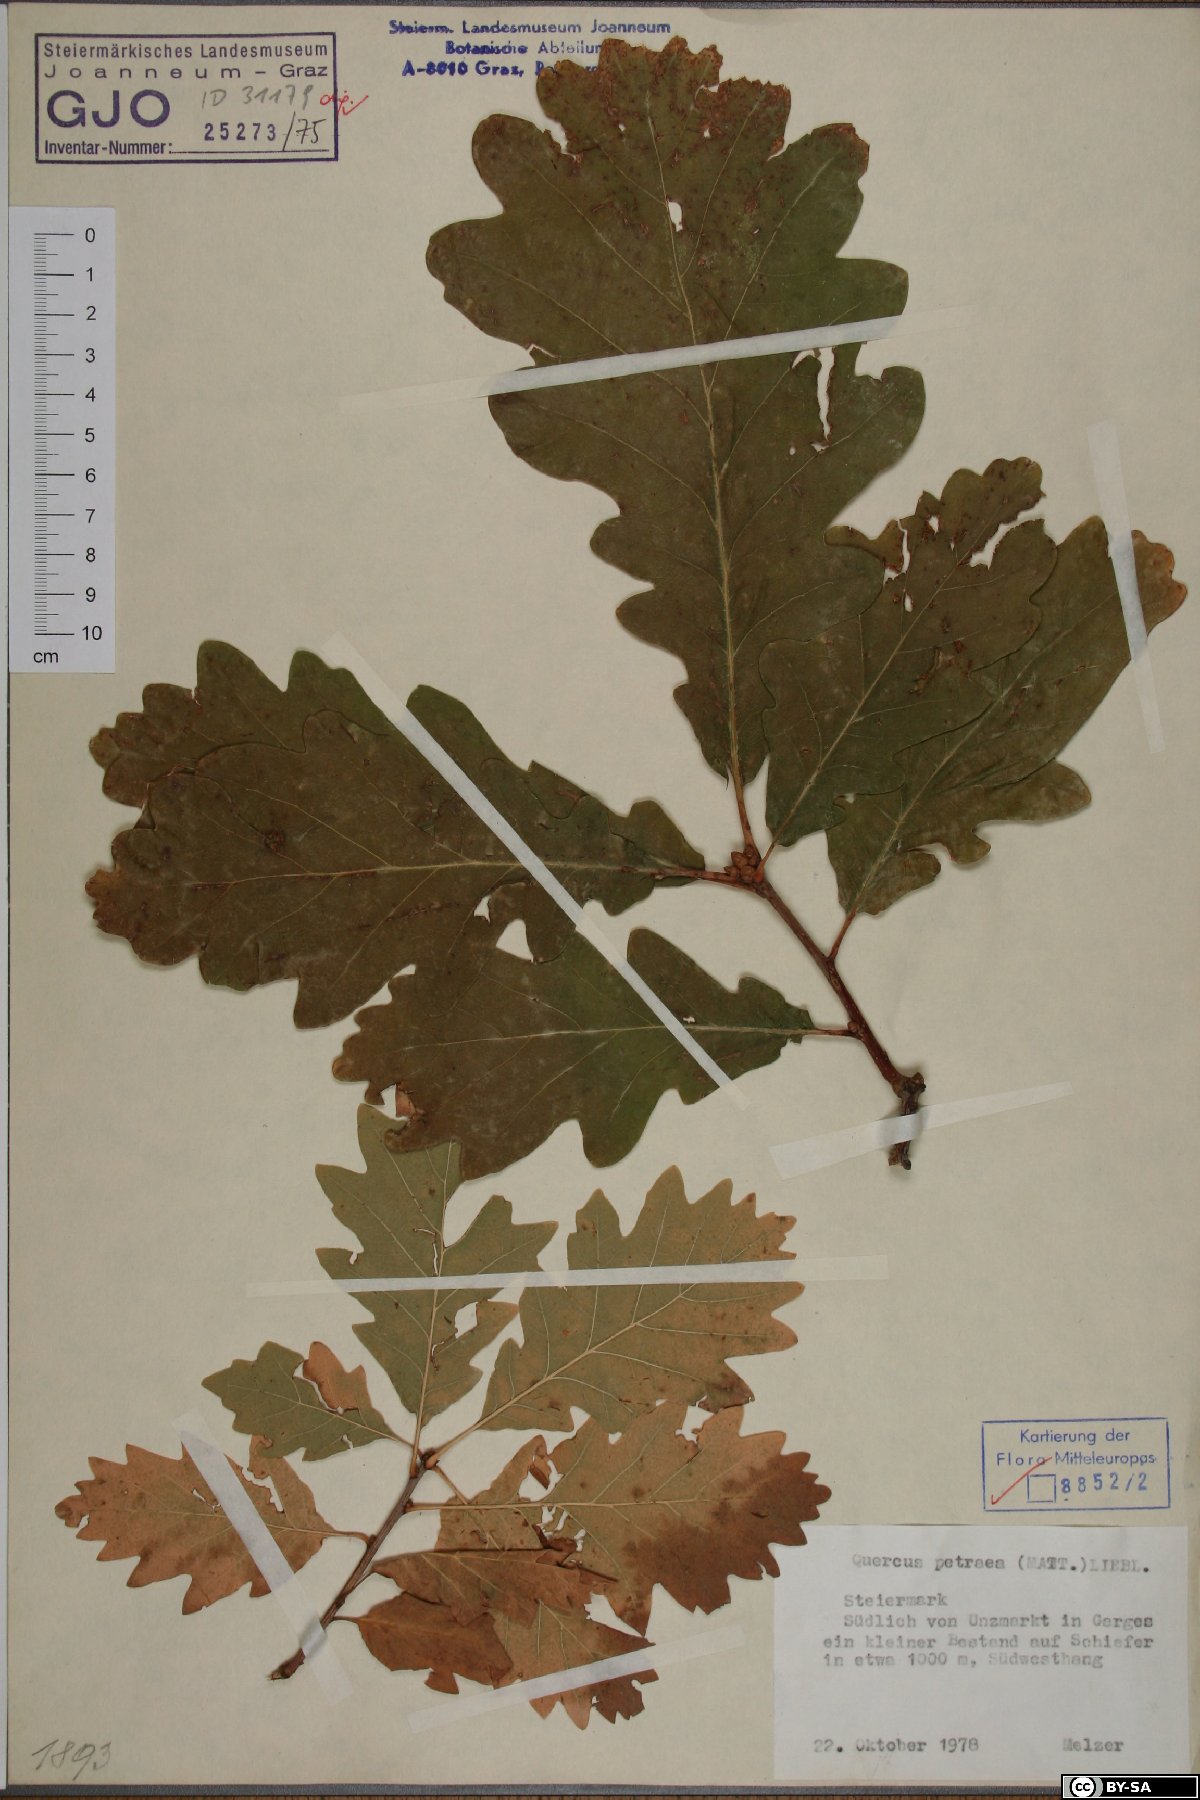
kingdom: Plantae
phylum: Tracheophyta
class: Magnoliopsida
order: Fagales
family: Fagaceae
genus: Quercus
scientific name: Quercus petraea
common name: Sessile oak
